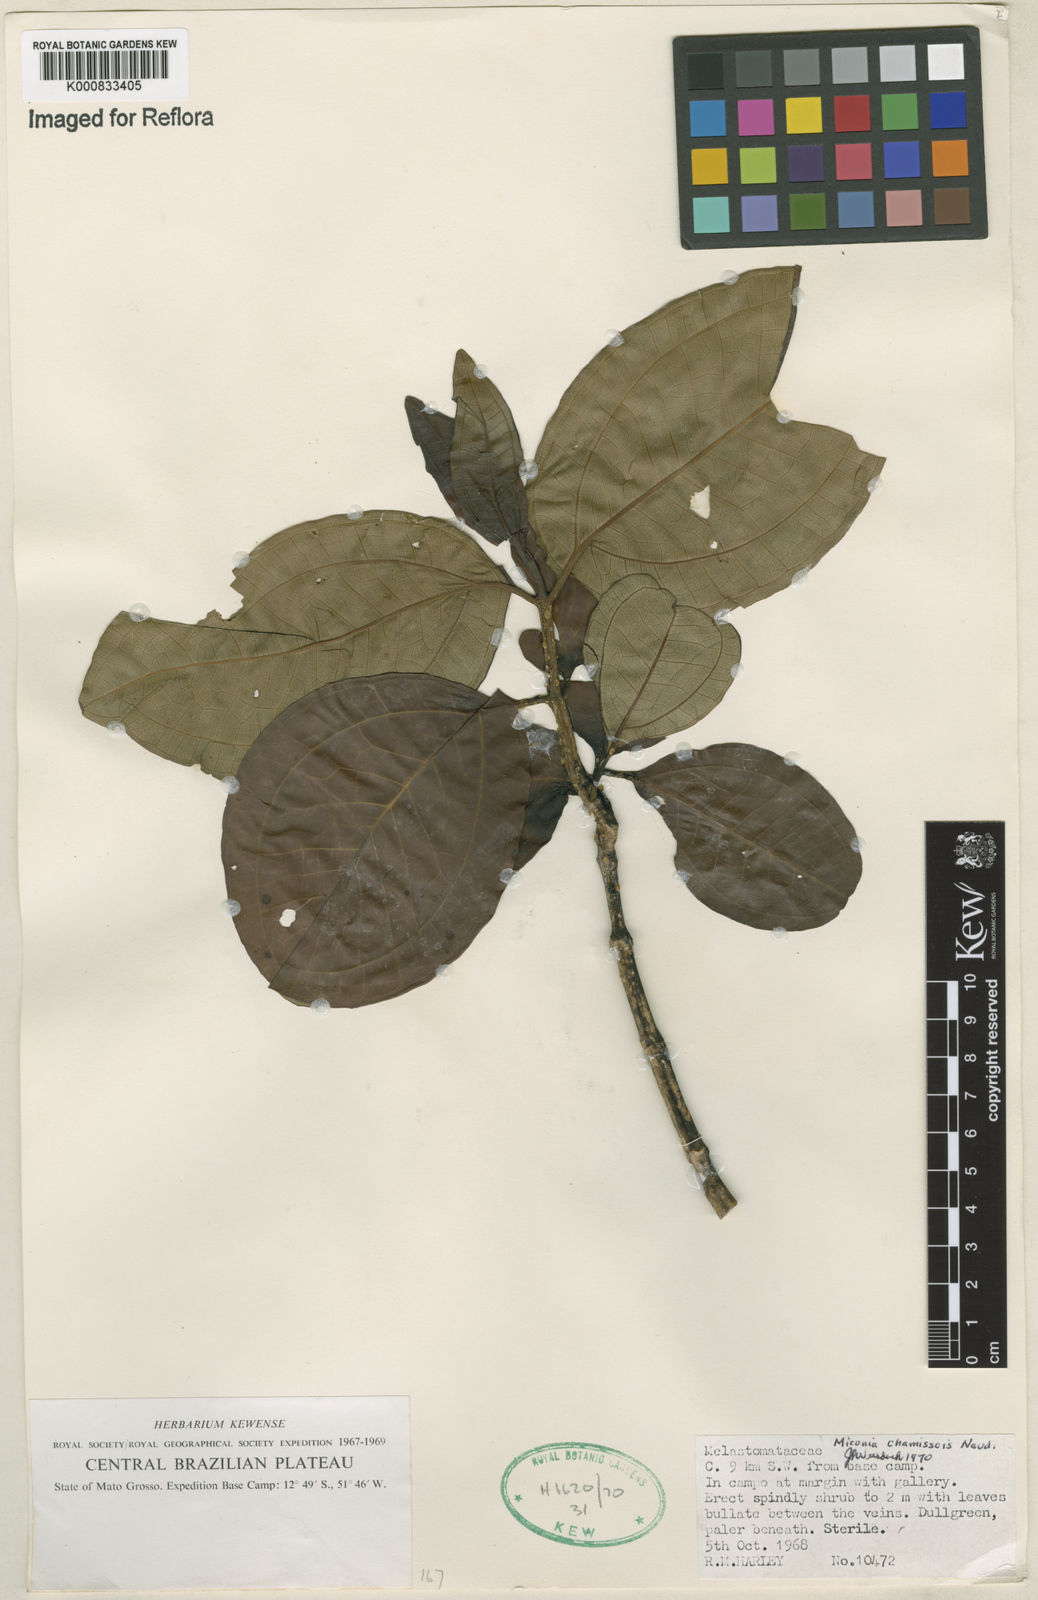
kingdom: Plantae
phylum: Tracheophyta
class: Magnoliopsida
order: Myrtales
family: Melastomataceae
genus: Miconia
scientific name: Miconia chamissois
